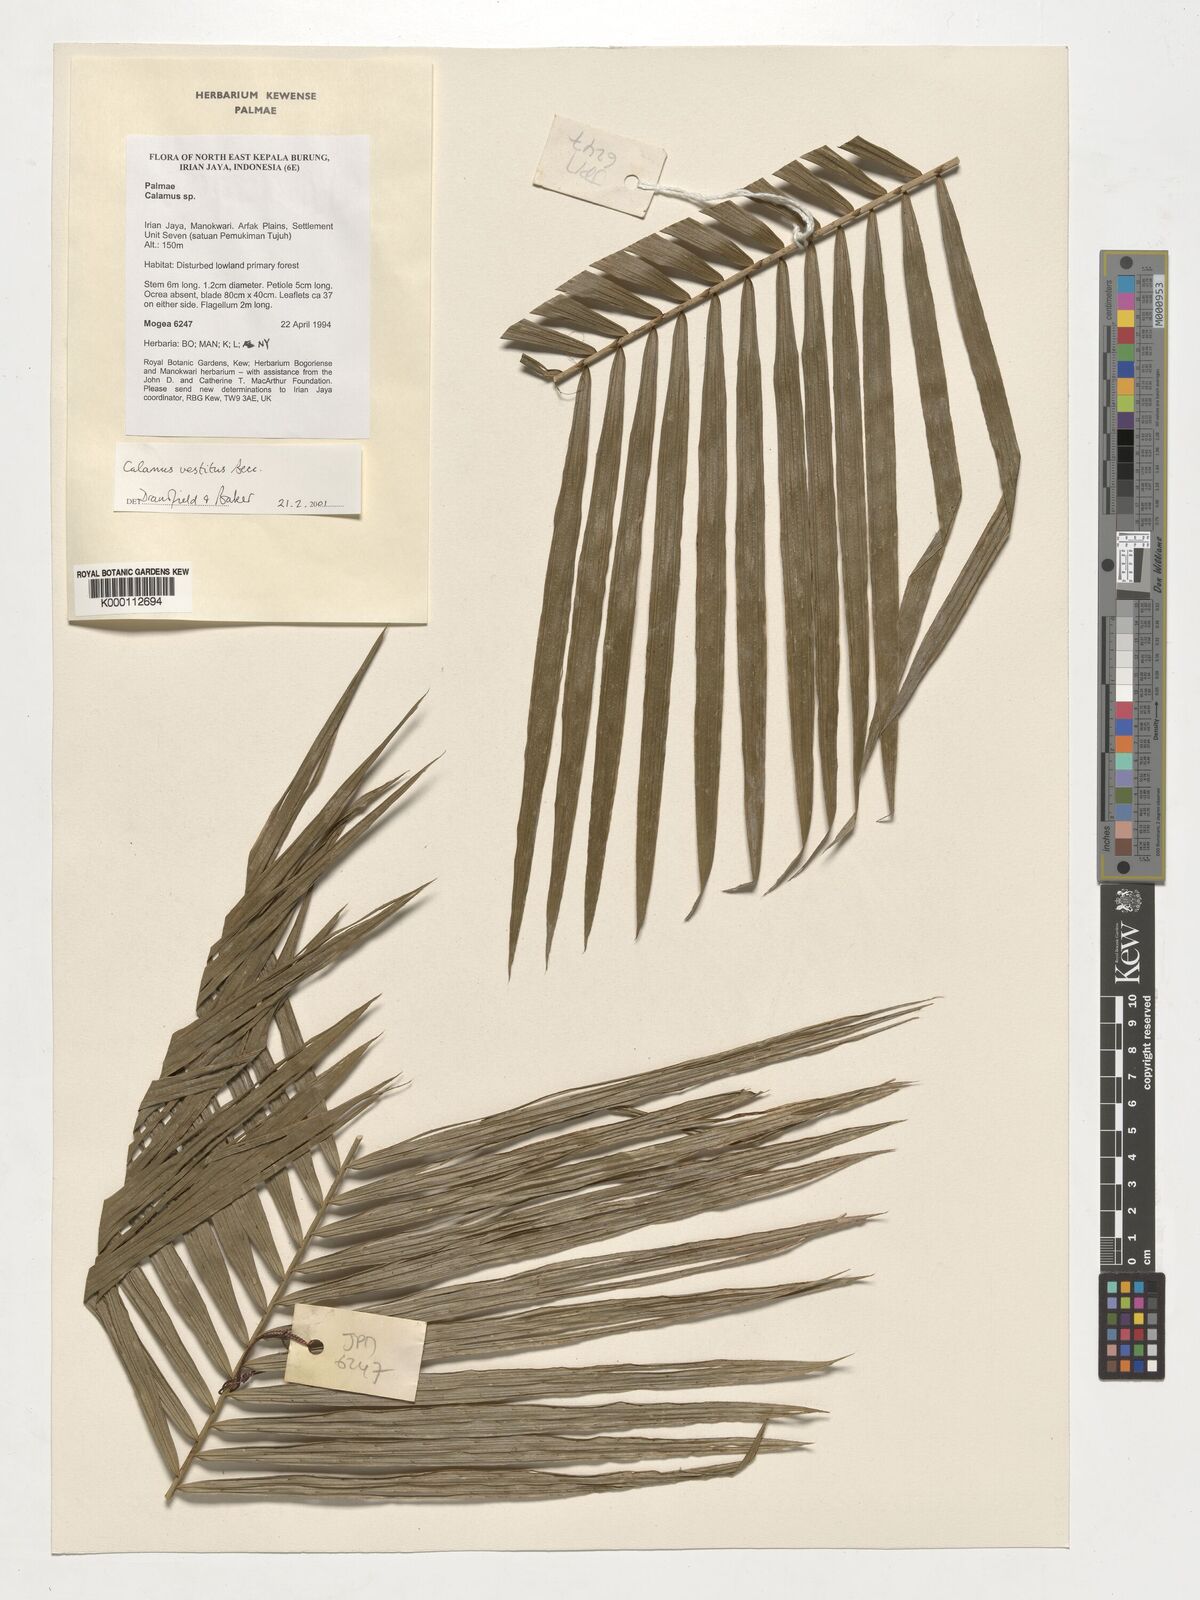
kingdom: Plantae
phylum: Tracheophyta
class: Liliopsida
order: Arecales
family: Arecaceae
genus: Calamus
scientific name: Calamus vestitus
